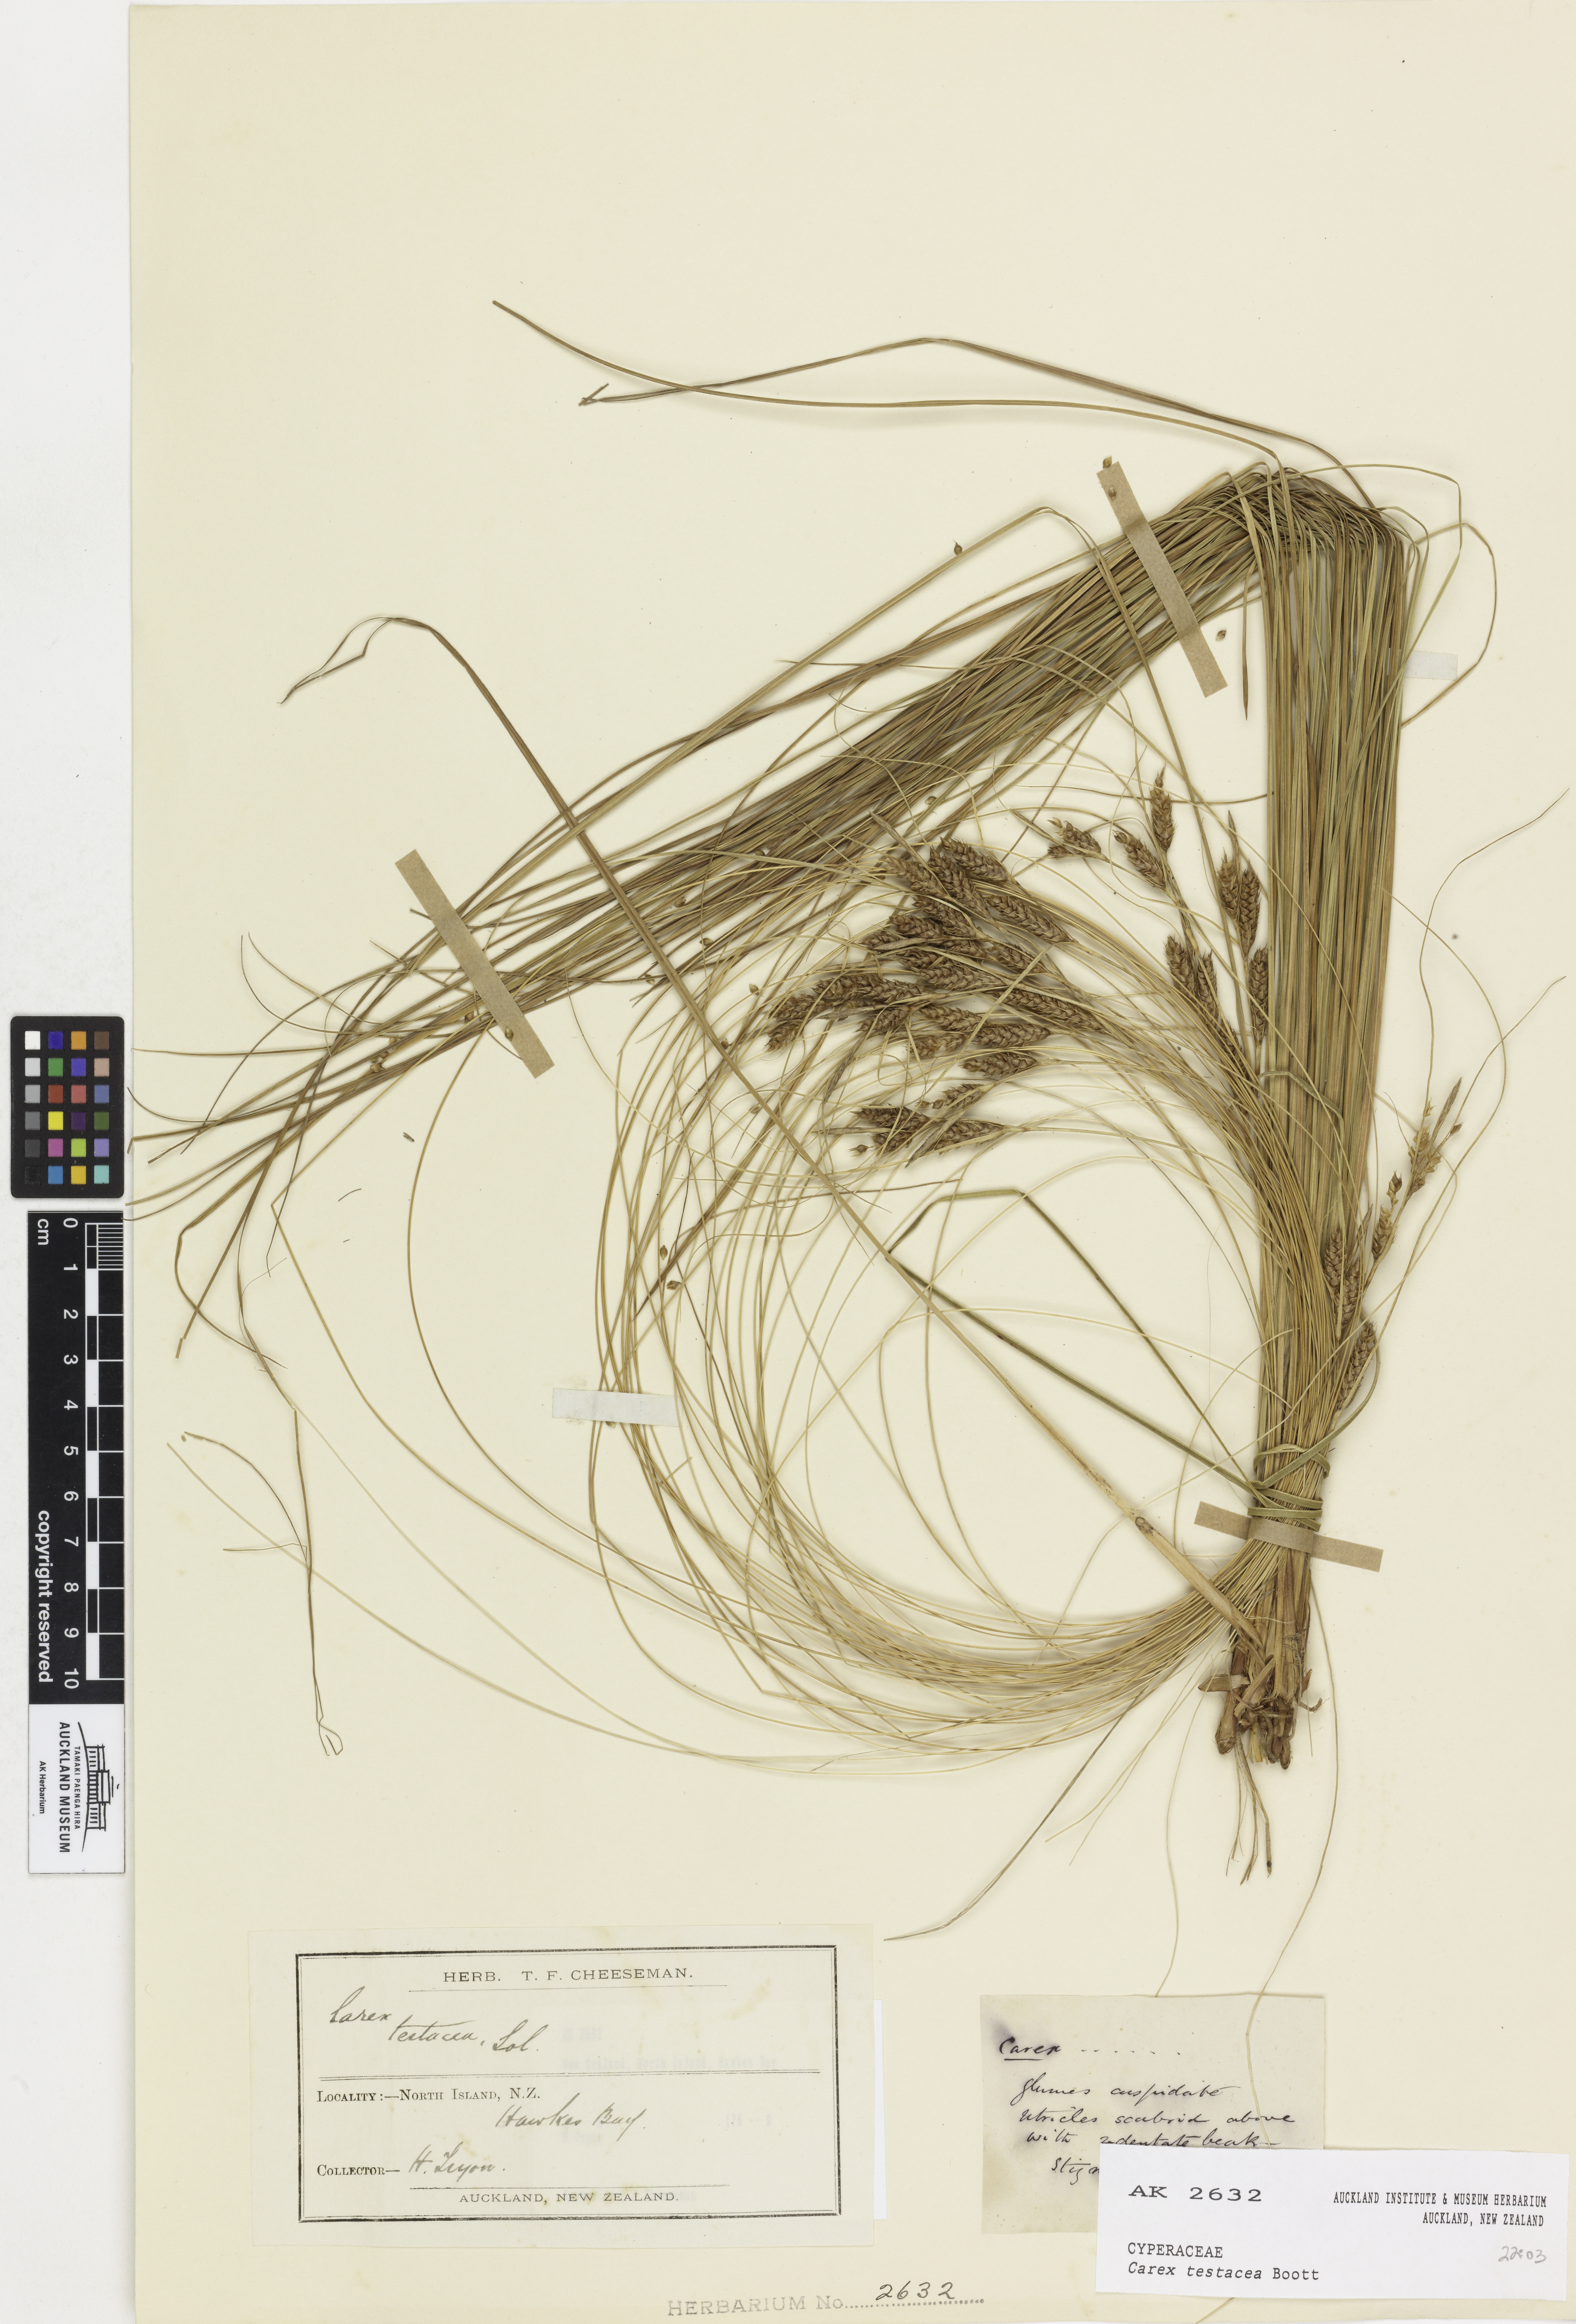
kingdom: Plantae
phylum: Tracheophyta
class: Liliopsida
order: Poales
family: Cyperaceae
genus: Carex
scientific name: Carex testacea
